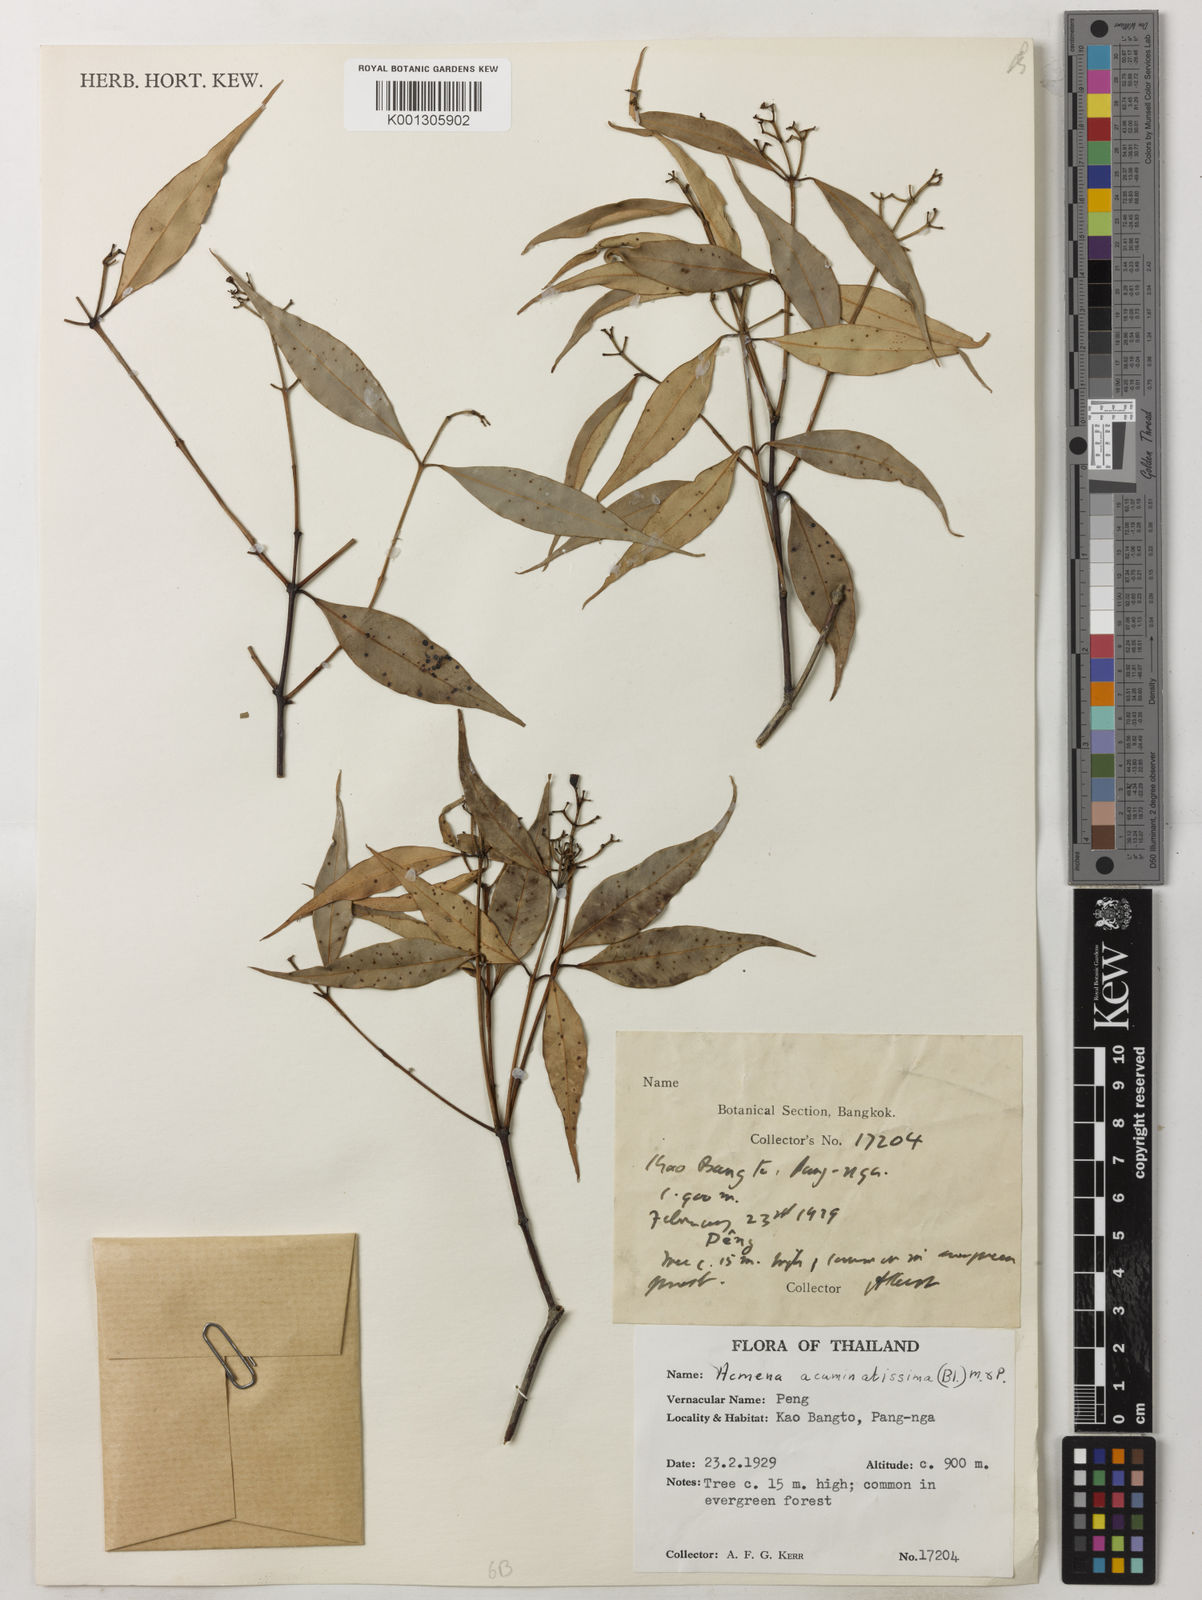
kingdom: Plantae
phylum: Tracheophyta
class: Magnoliopsida
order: Myrtales
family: Myrtaceae
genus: Syzygium
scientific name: Syzygium acuminatissimum
